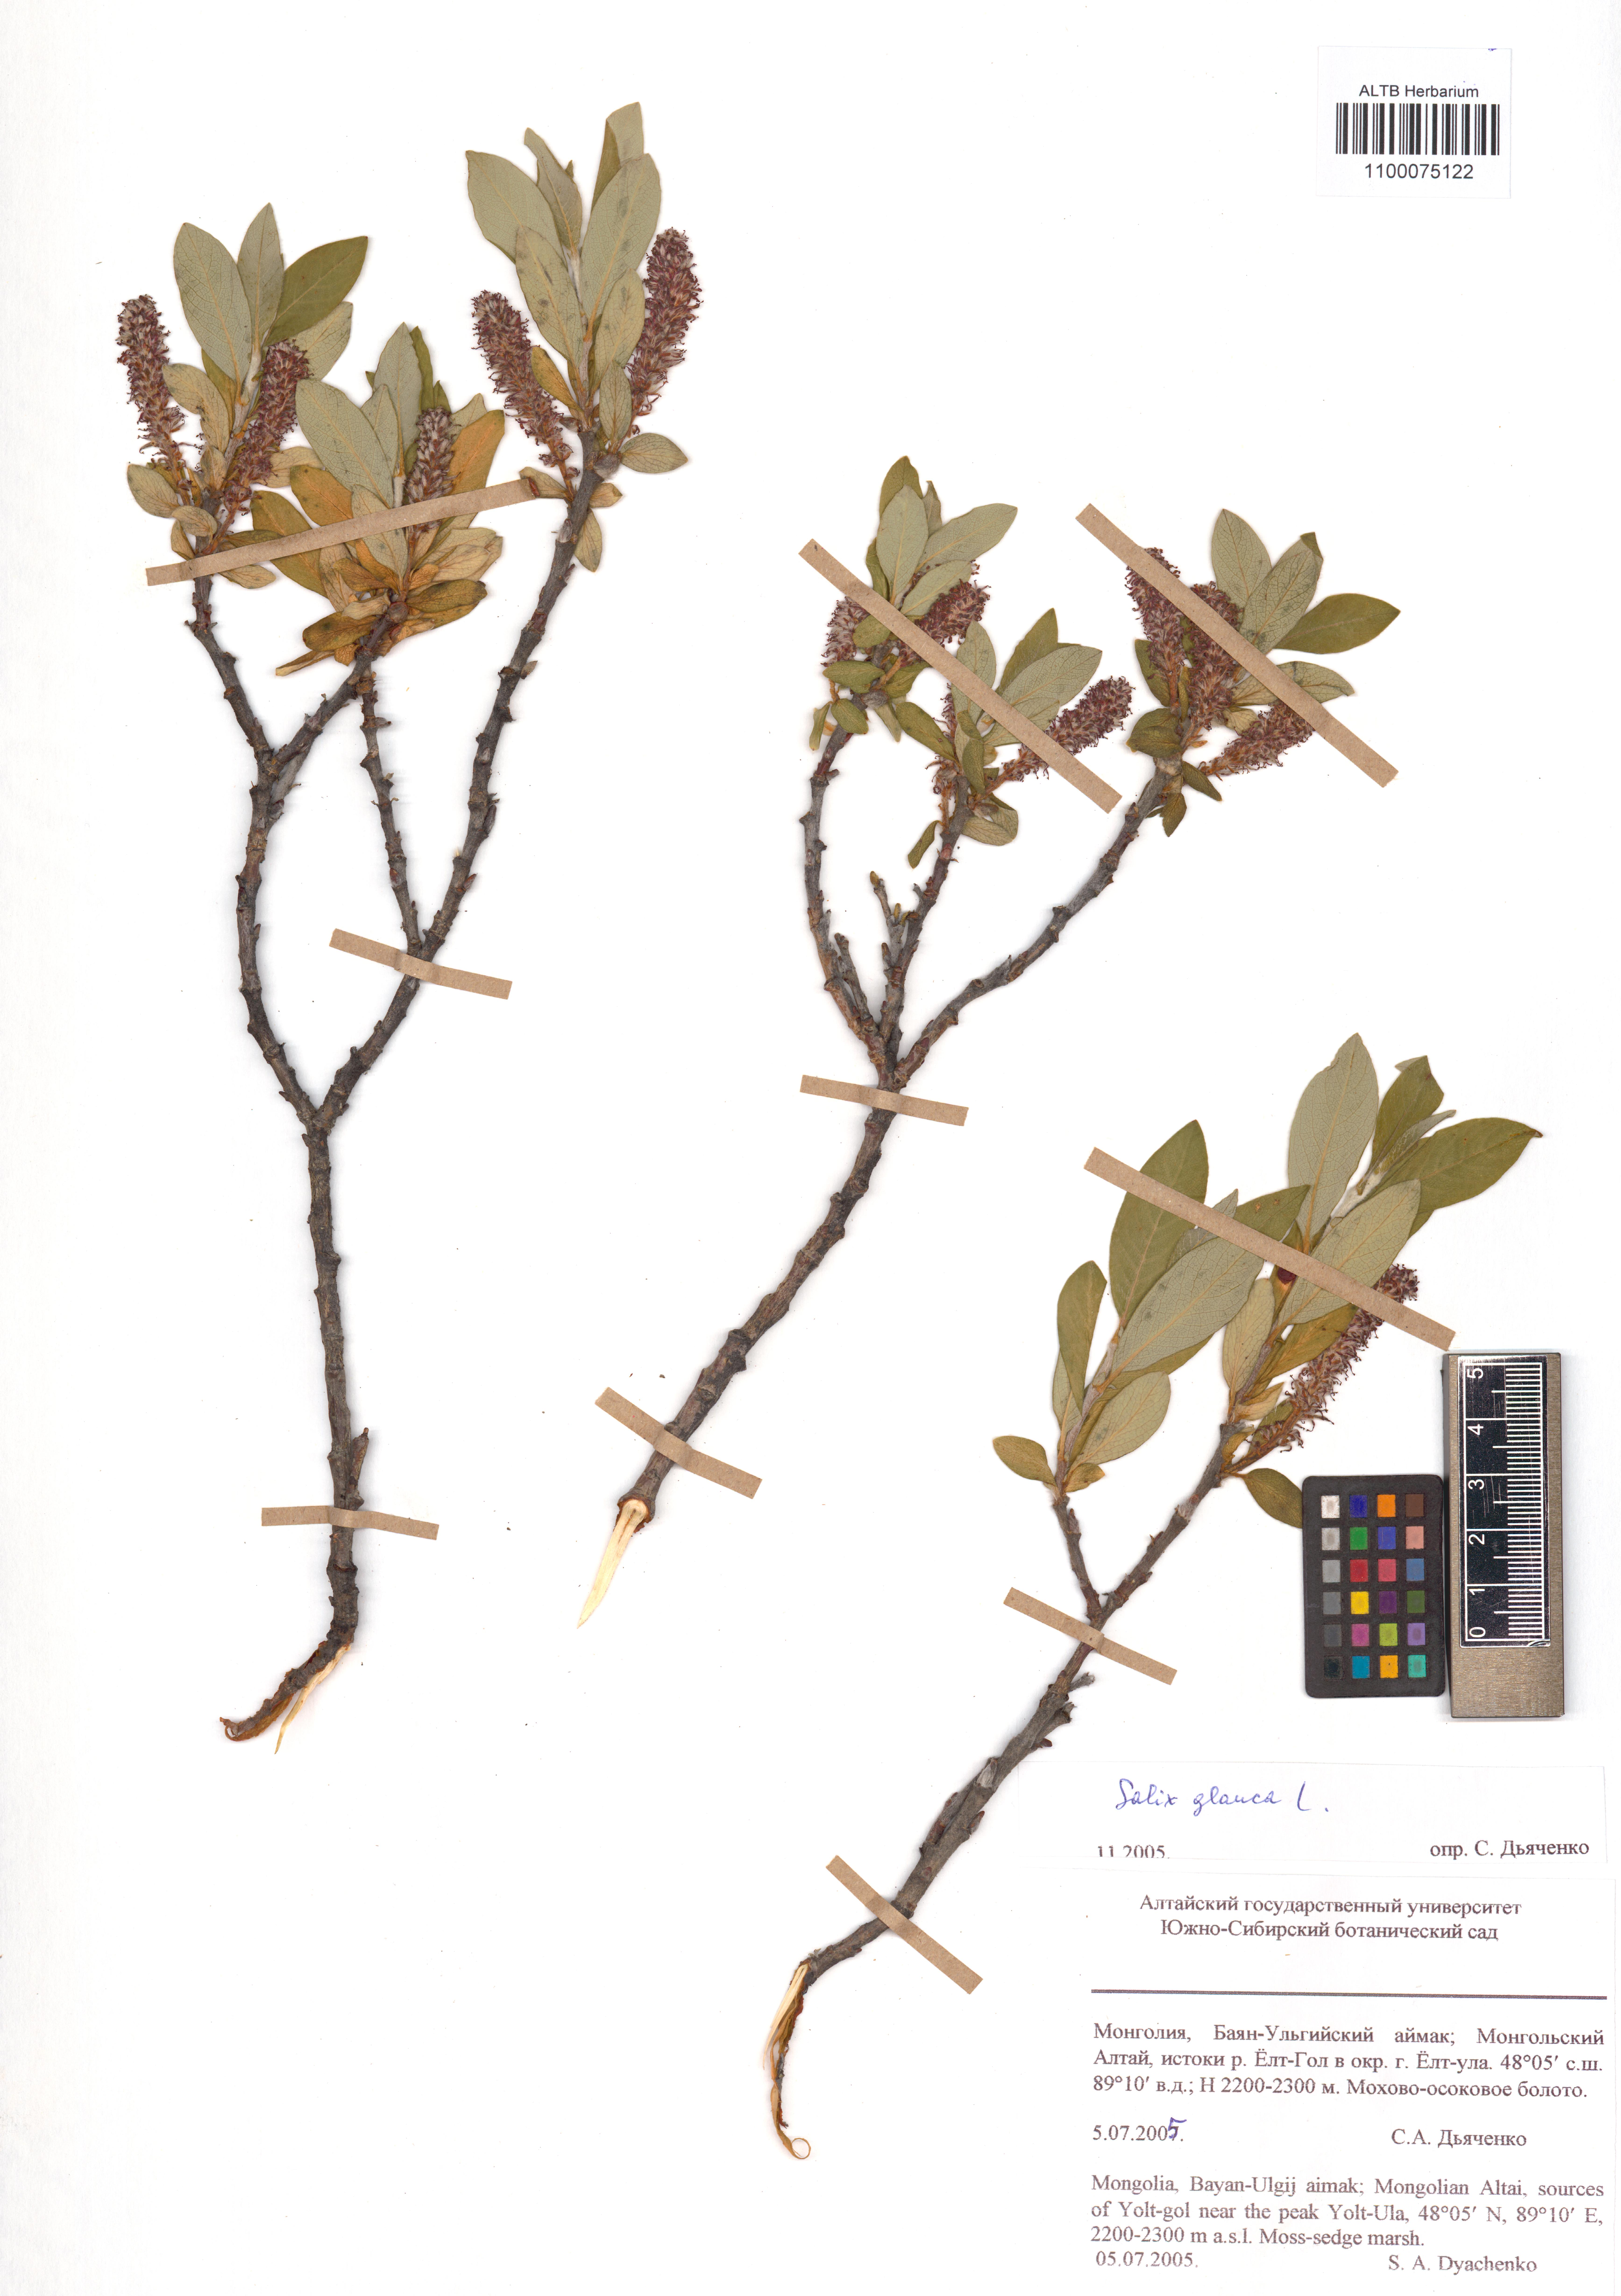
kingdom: Plantae
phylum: Tracheophyta
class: Magnoliopsida
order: Malpighiales
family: Salicaceae
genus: Salix
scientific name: Salix glauca
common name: Glaucous willow
